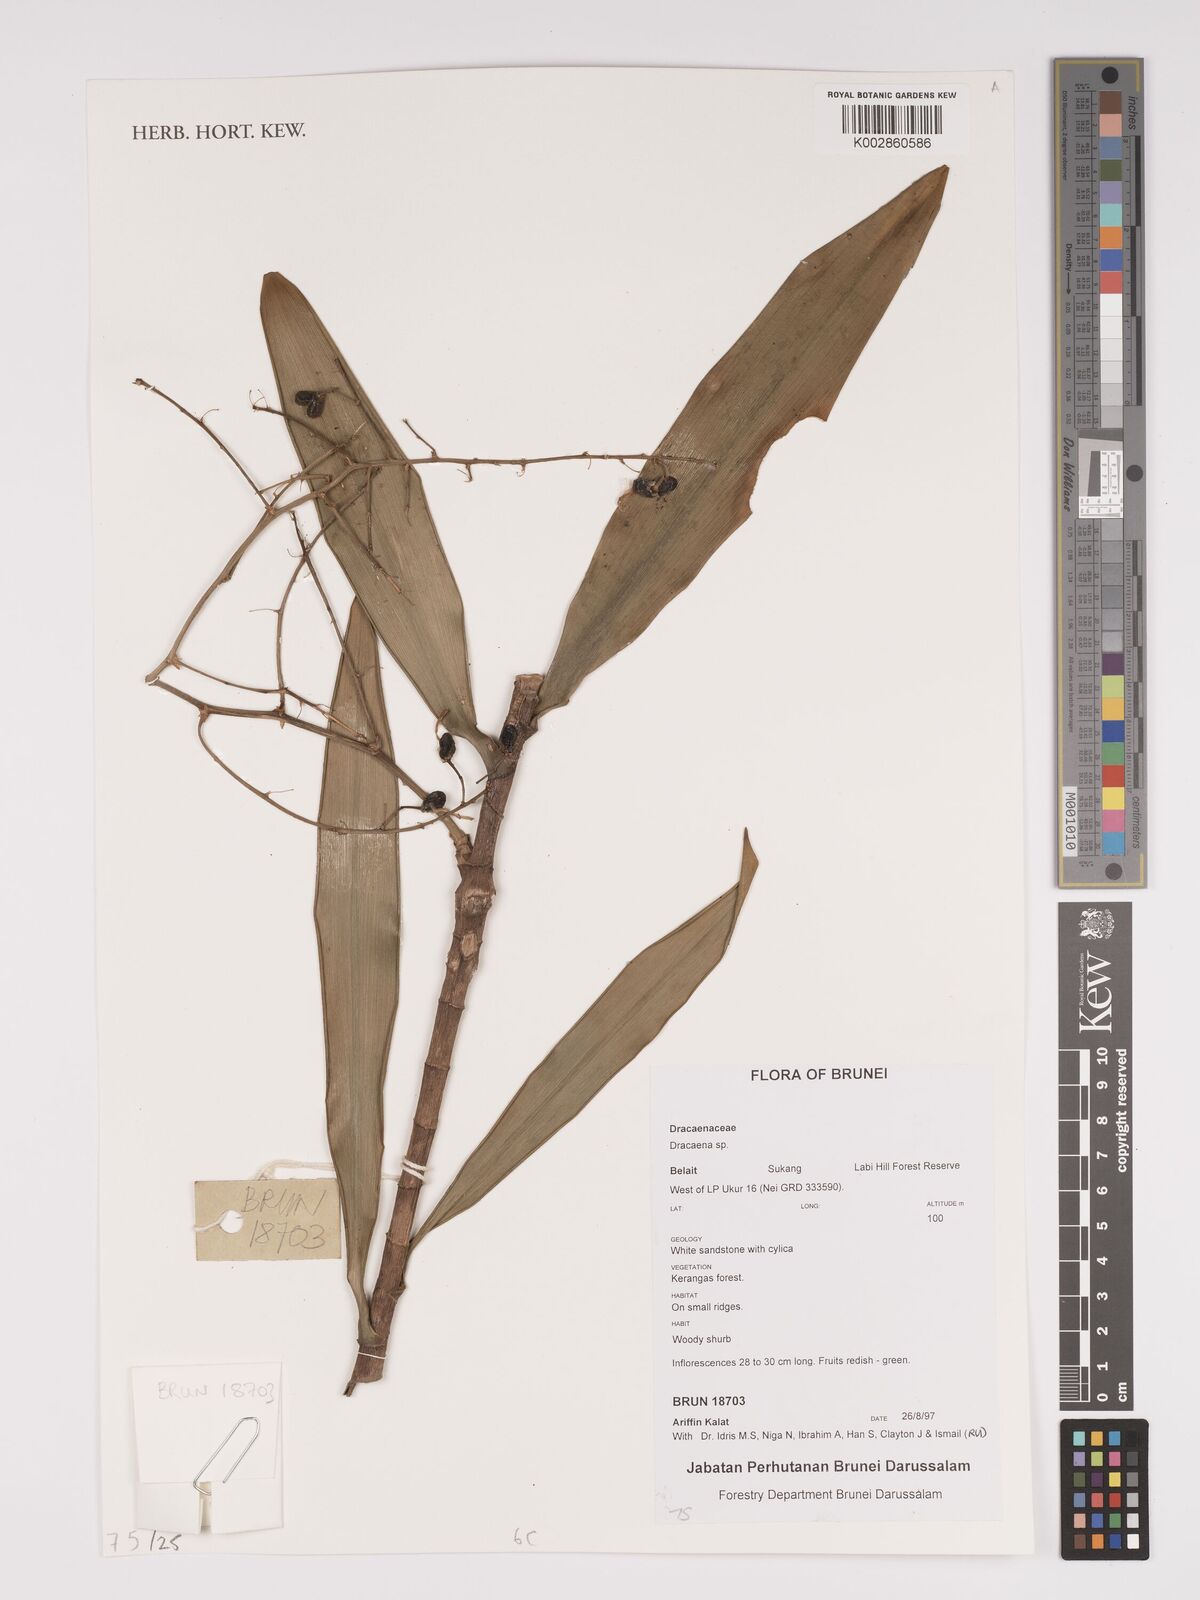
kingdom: Plantae
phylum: Tracheophyta
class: Liliopsida
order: Asparagales
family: Asparagaceae
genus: Dracaena
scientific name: Dracaena
